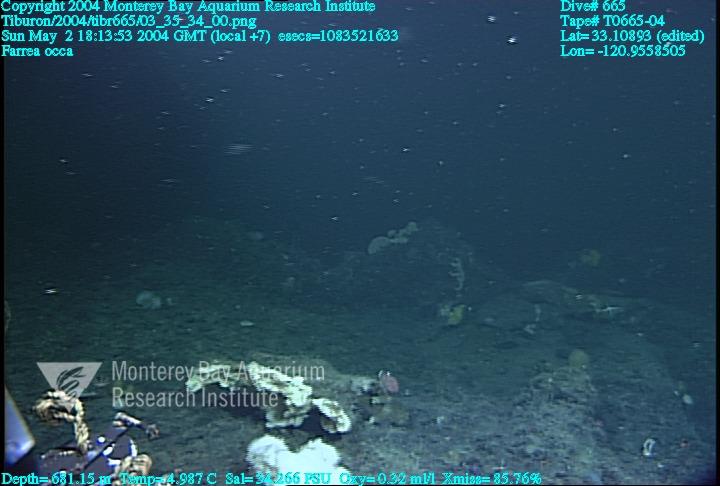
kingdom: Animalia
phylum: Porifera
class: Hexactinellida
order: Sceptrulophora
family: Farreidae
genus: Farrea
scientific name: Farrea occa
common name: Reversed glass sponge
